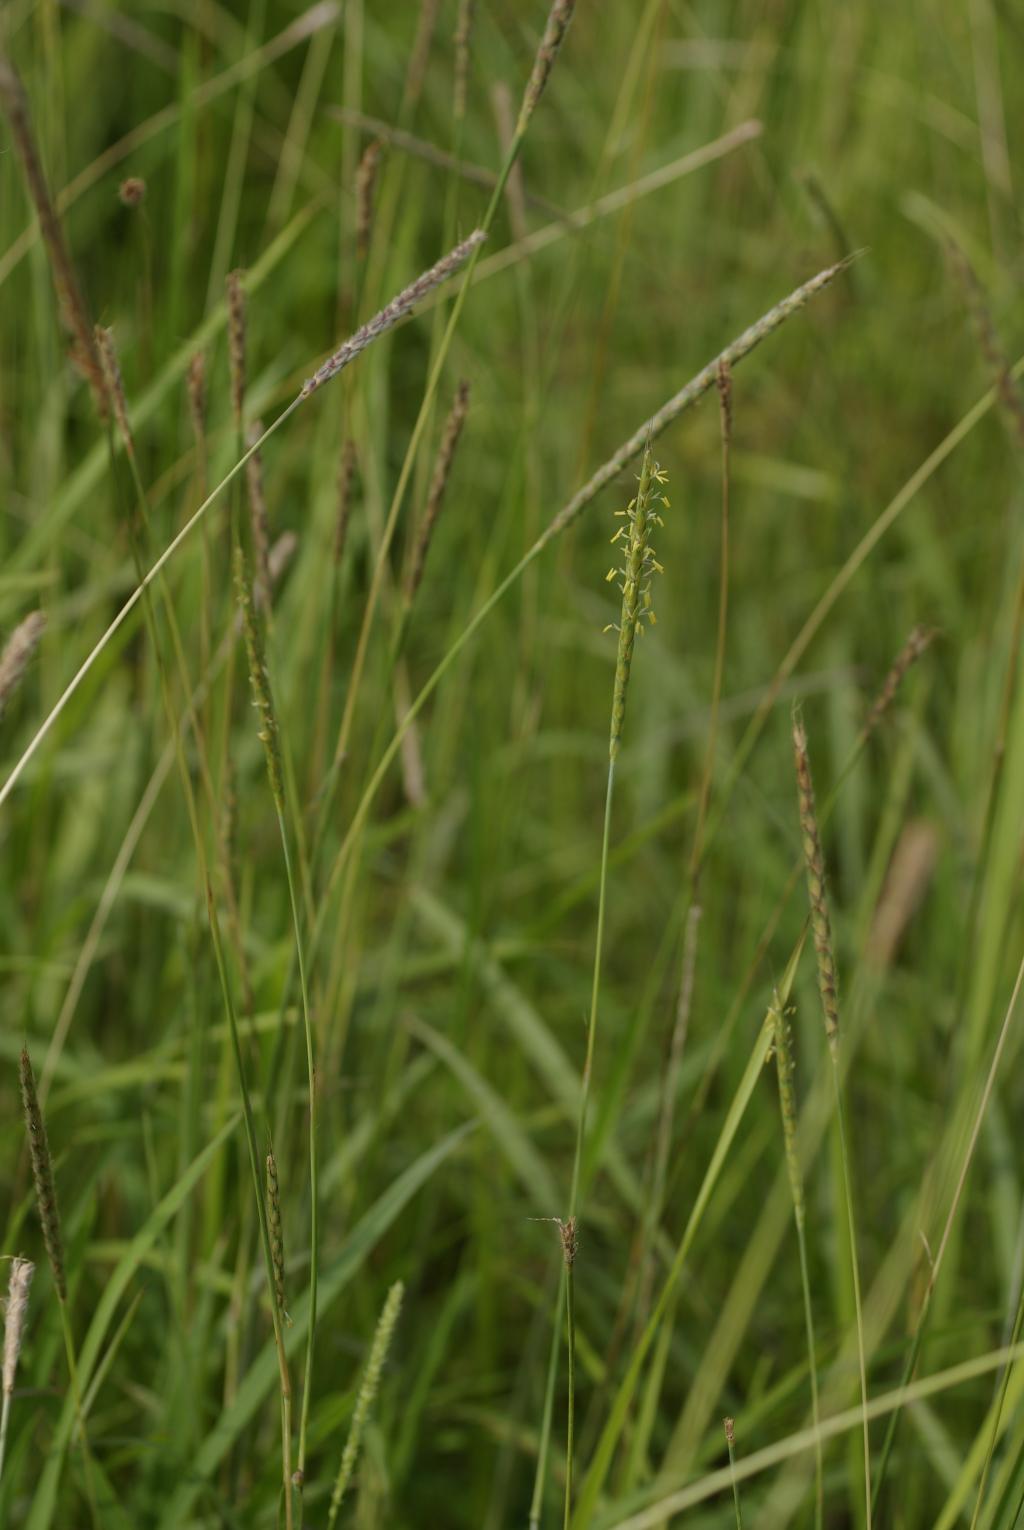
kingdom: Plantae
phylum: Tracheophyta
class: Liliopsida
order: Poales
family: Poaceae
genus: Ischaemum
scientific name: Ischaemum barbatum
